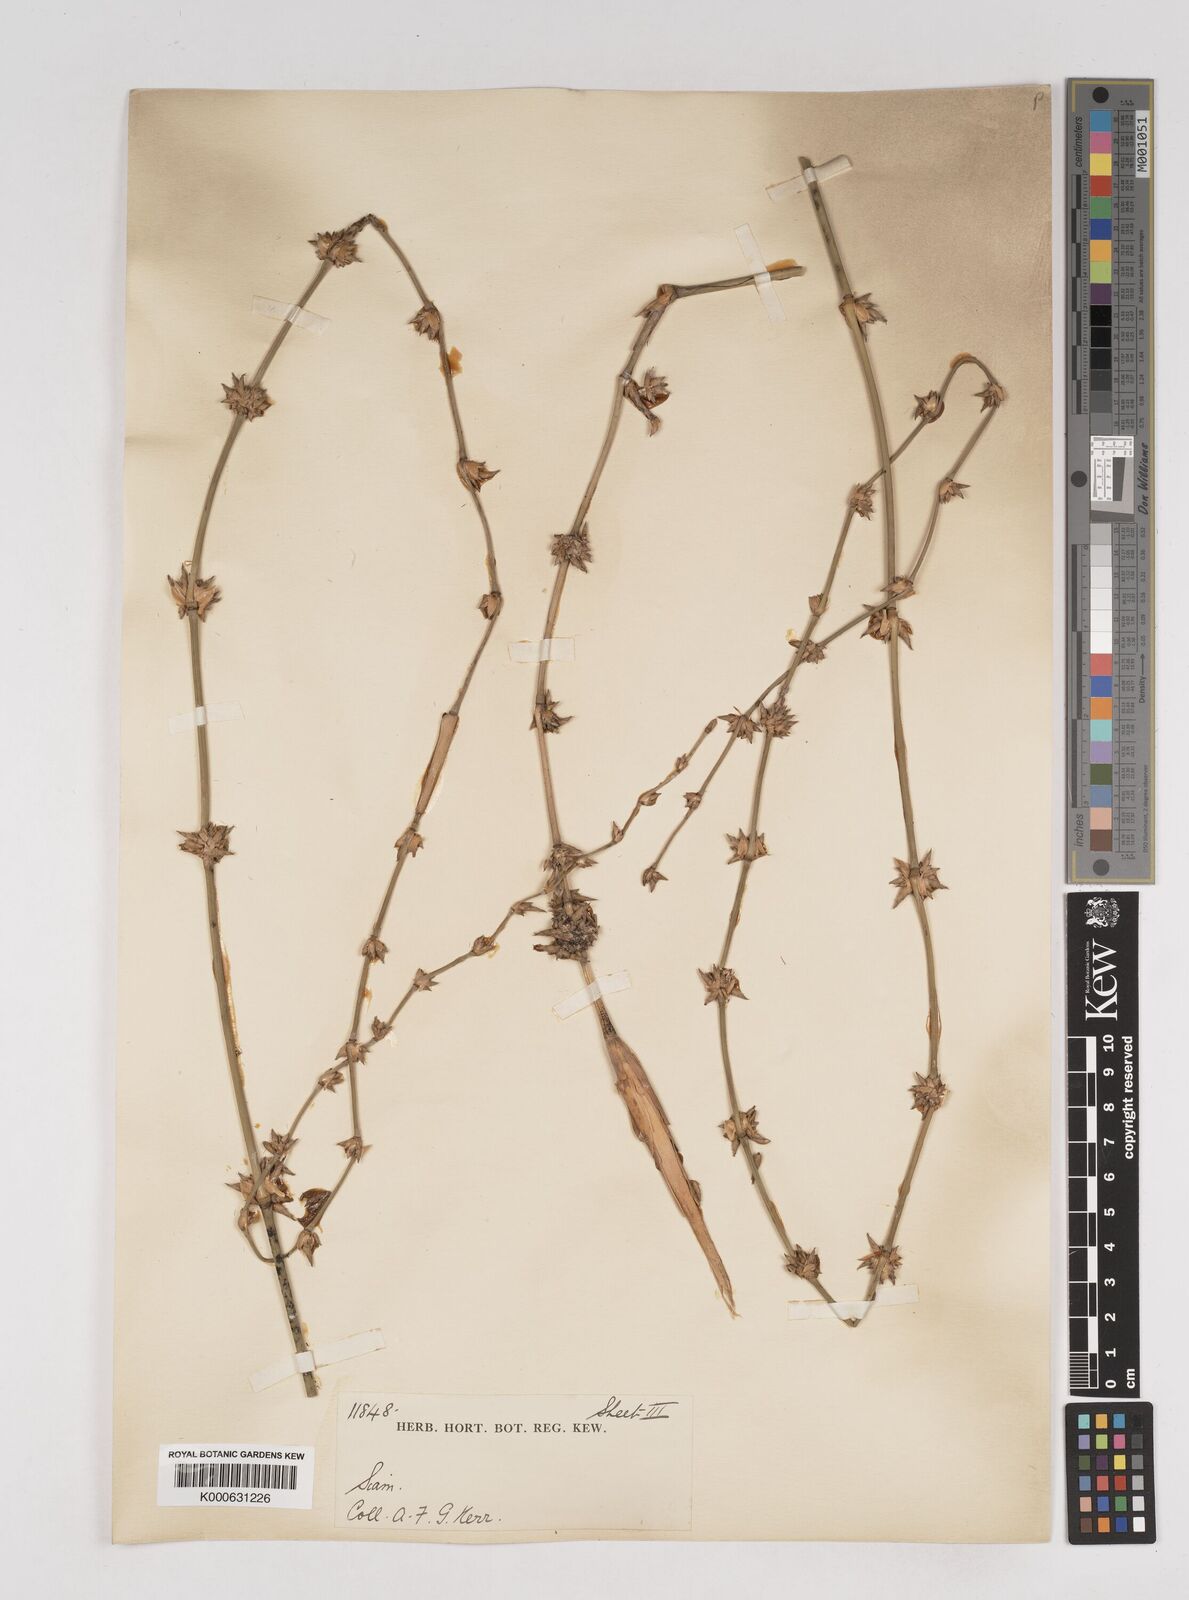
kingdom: Plantae
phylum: Tracheophyta
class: Liliopsida
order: Poales
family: Poaceae
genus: Gigantochloa
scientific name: Gigantochloa
